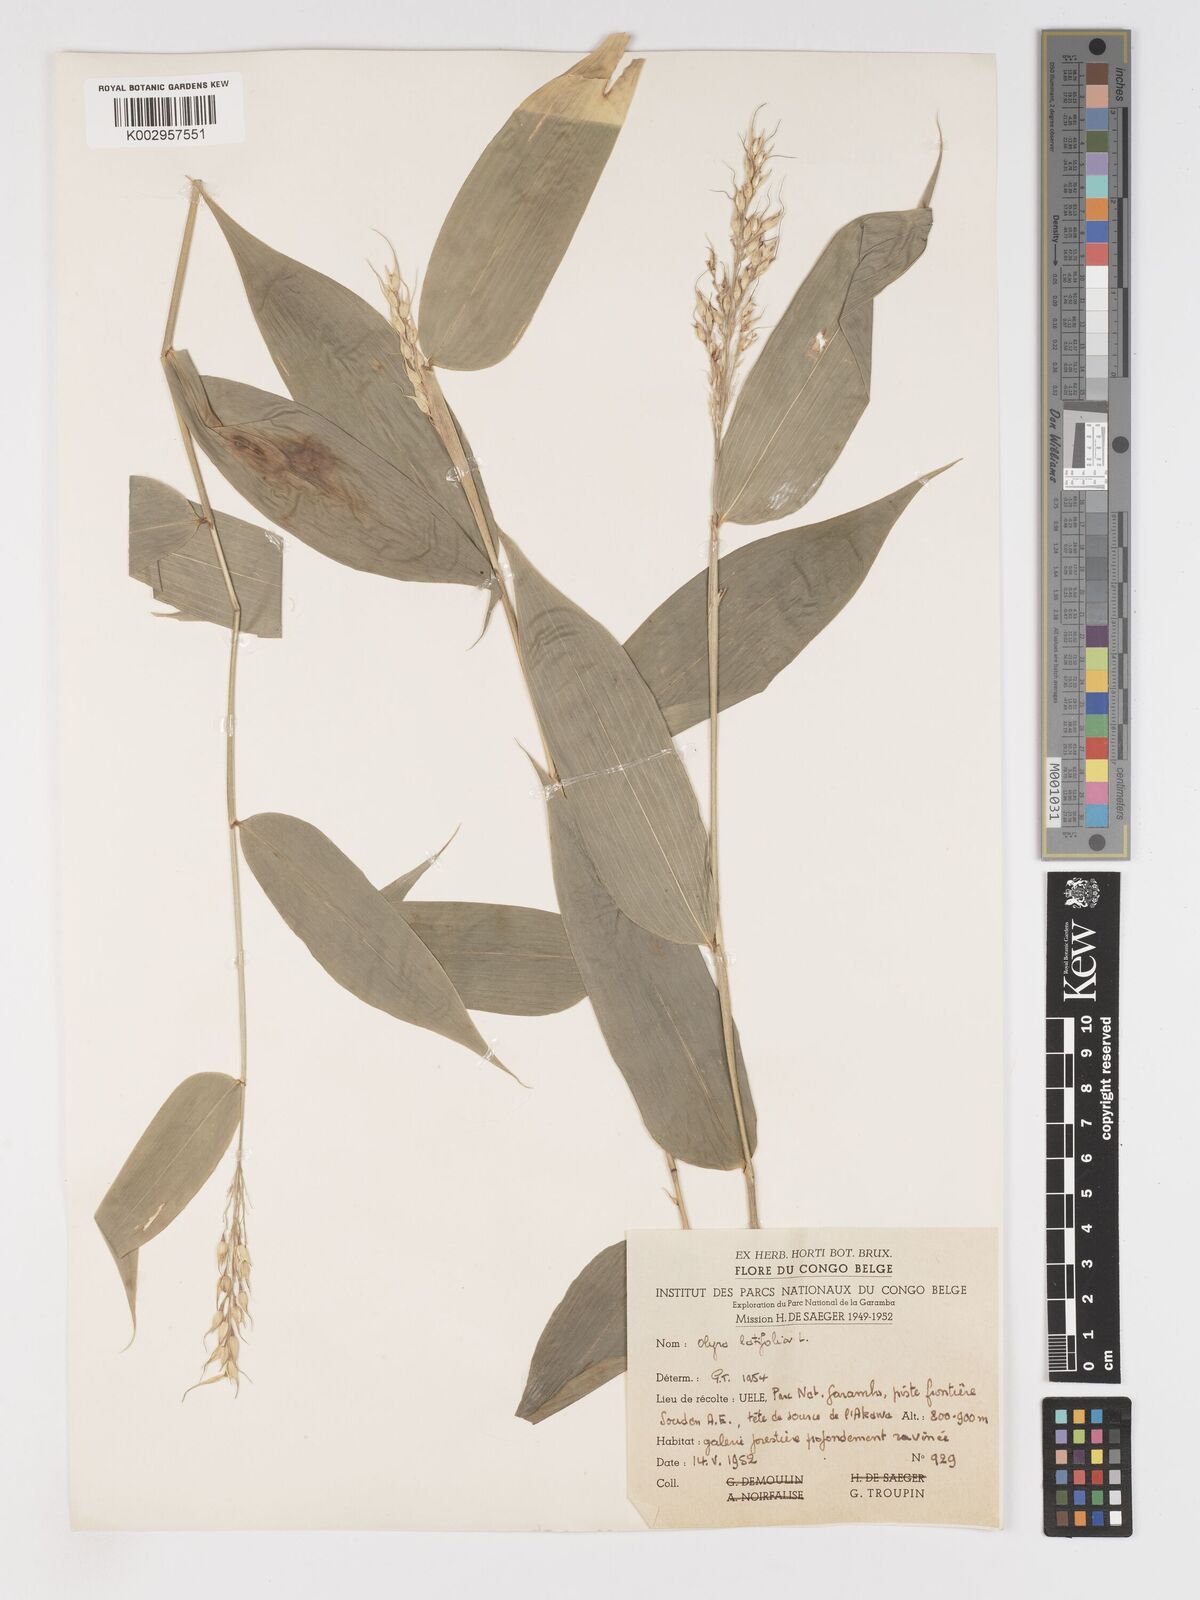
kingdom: Plantae
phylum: Tracheophyta
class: Liliopsida
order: Poales
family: Poaceae
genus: Olyra
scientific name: Olyra latifolia
